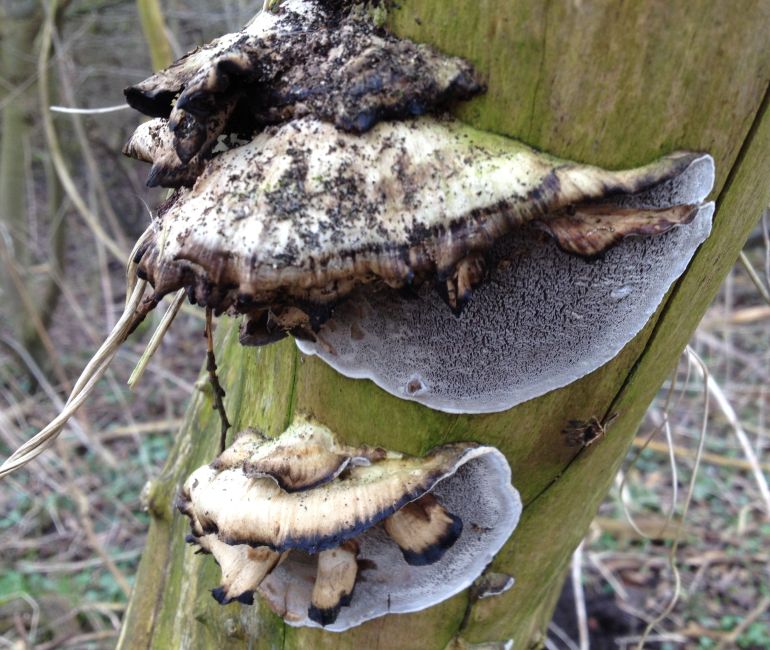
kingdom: Fungi
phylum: Basidiomycota
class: Agaricomycetes
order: Polyporales
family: Phanerochaetaceae
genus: Bjerkandera
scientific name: Bjerkandera adusta
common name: sveden sodporesvamp
